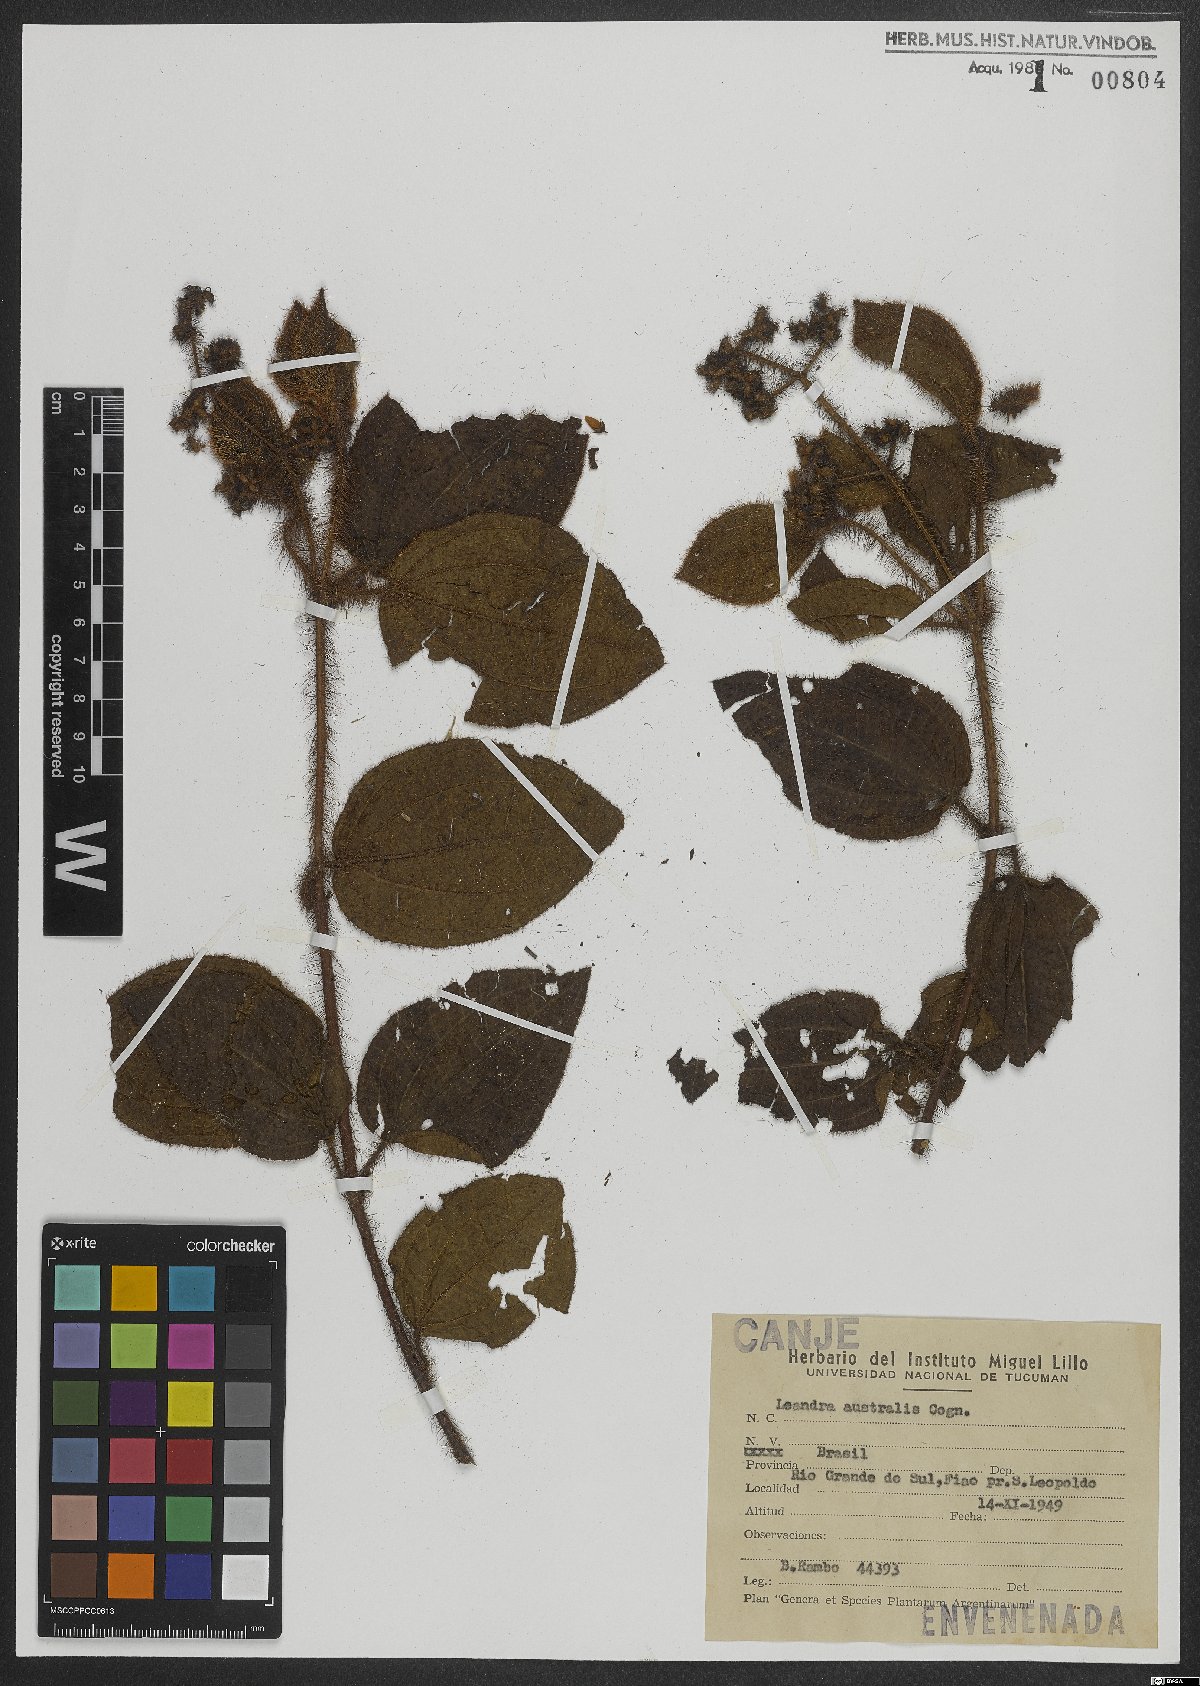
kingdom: Plantae
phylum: Tracheophyta
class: Magnoliopsida
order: Myrtales
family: Melastomataceae
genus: Miconia
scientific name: Miconia australis
